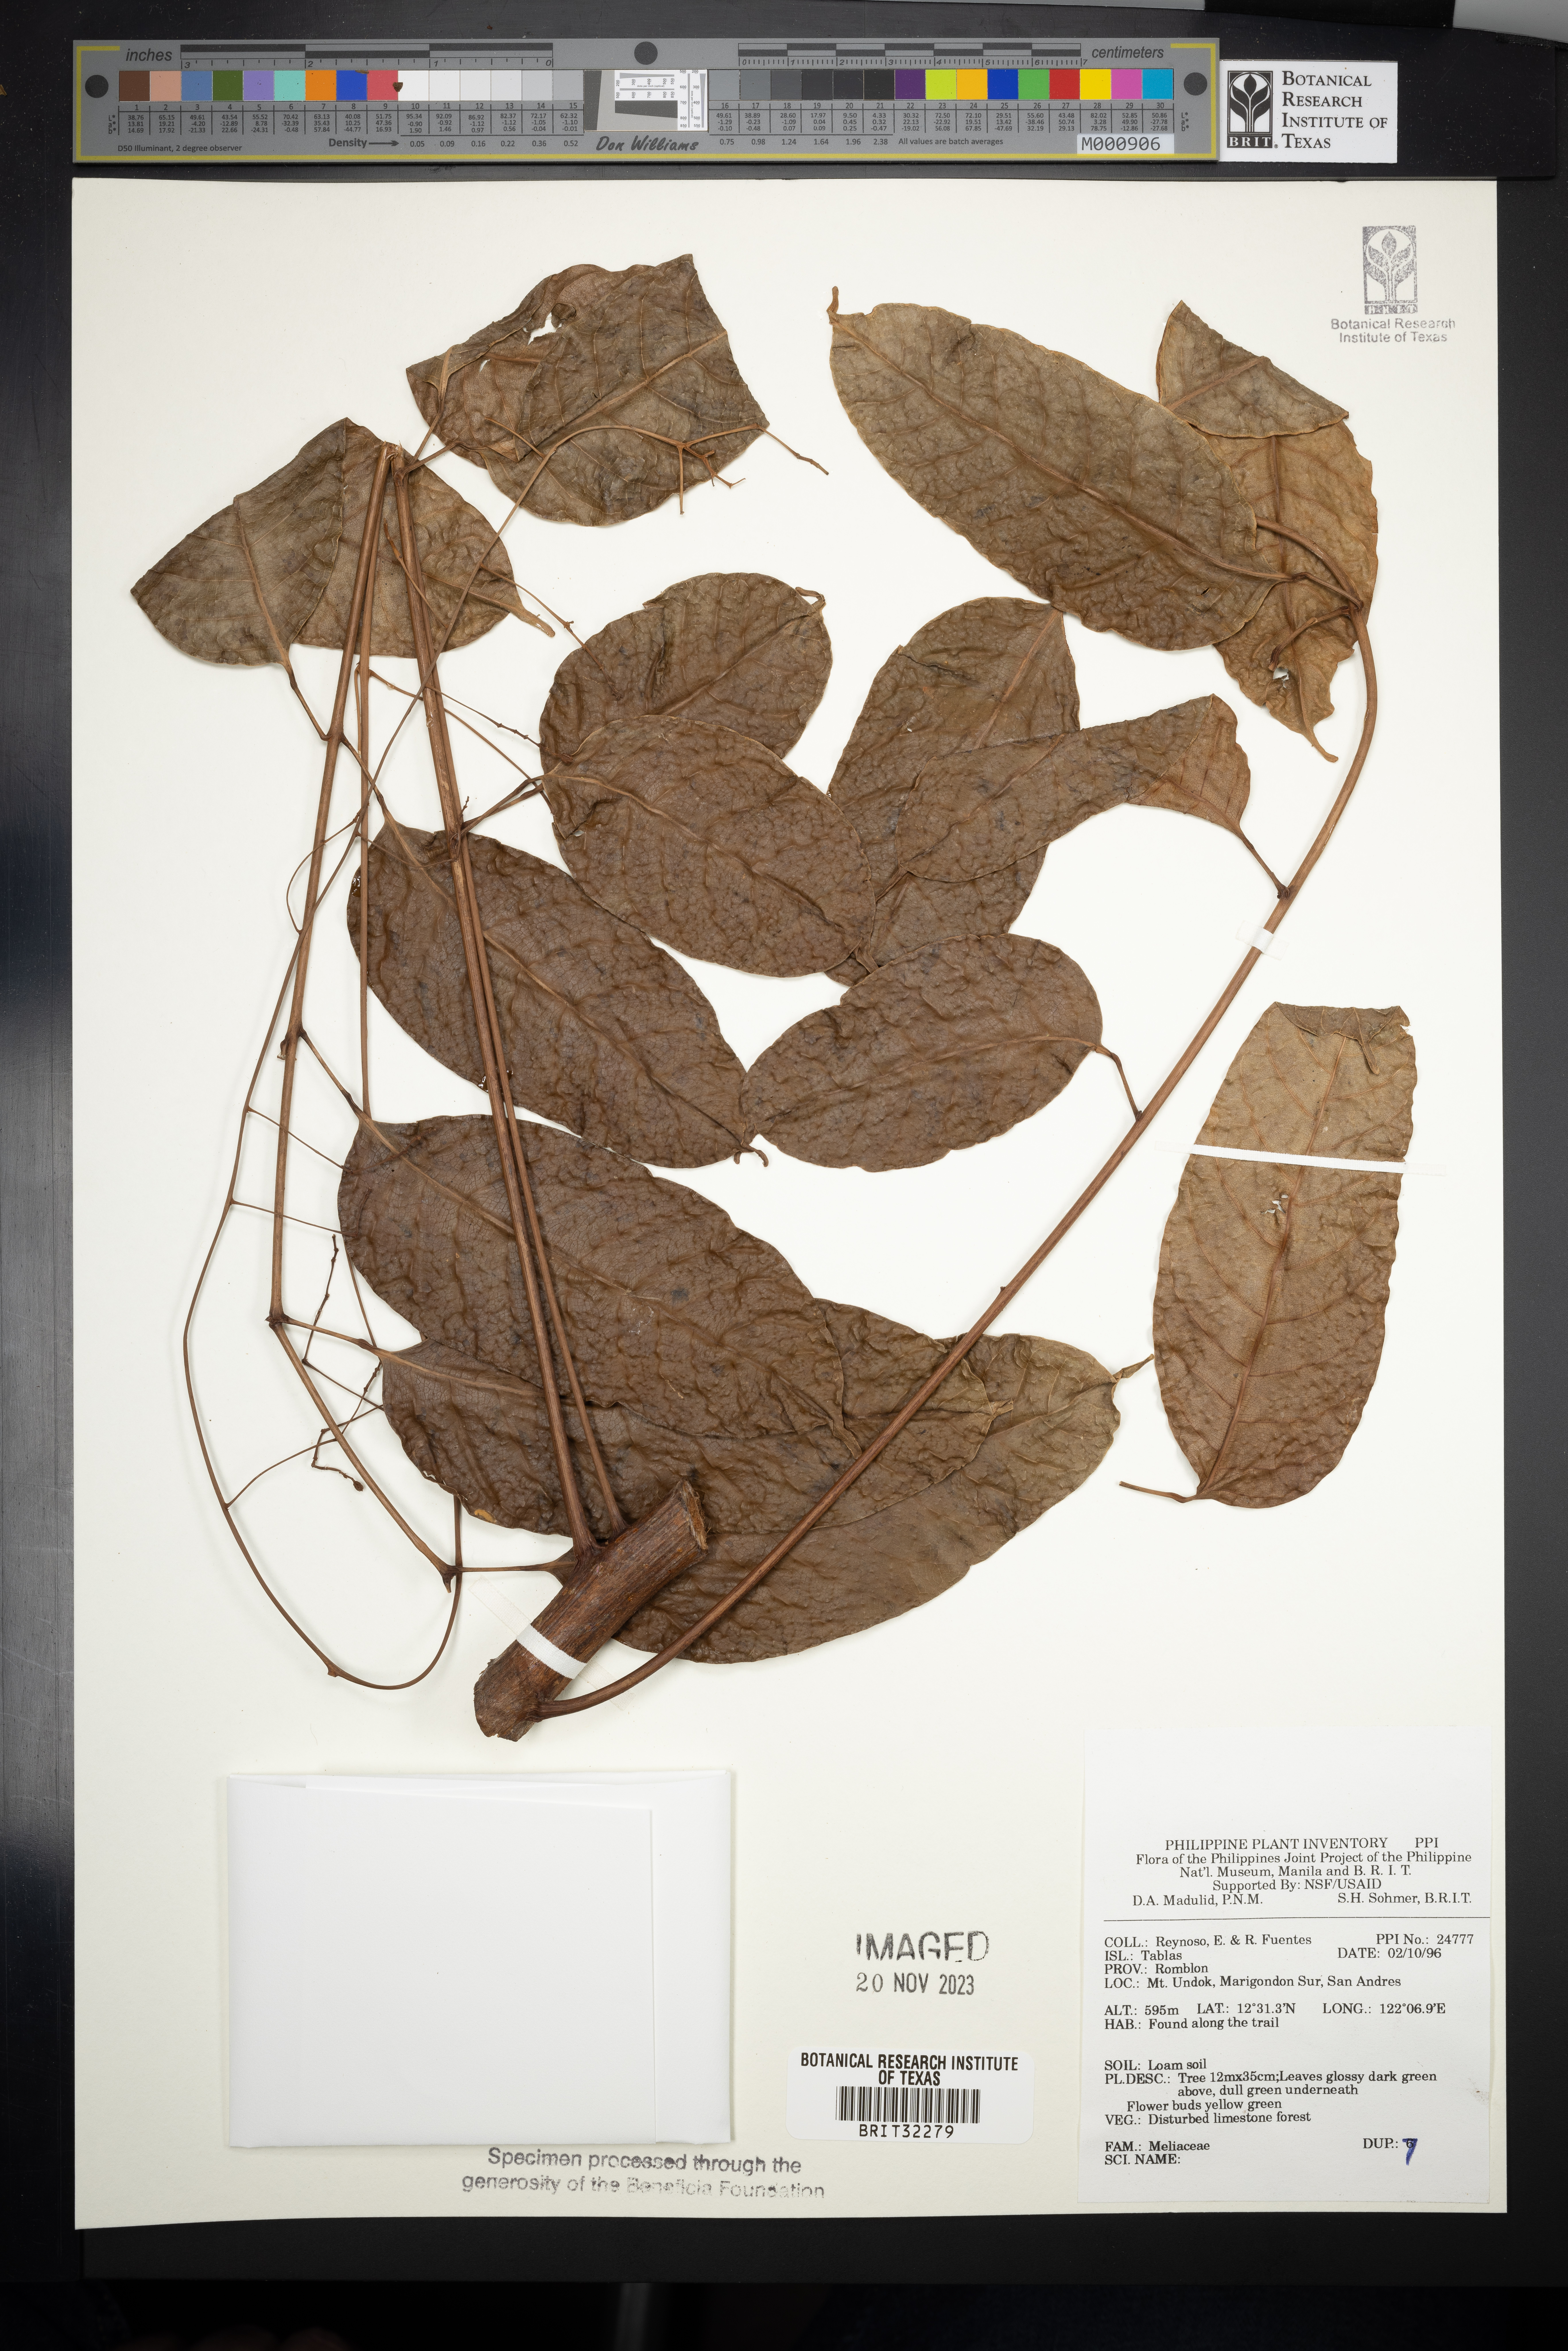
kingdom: Plantae
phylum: Tracheophyta
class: Magnoliopsida
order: Sapindales
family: Meliaceae
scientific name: Meliaceae
